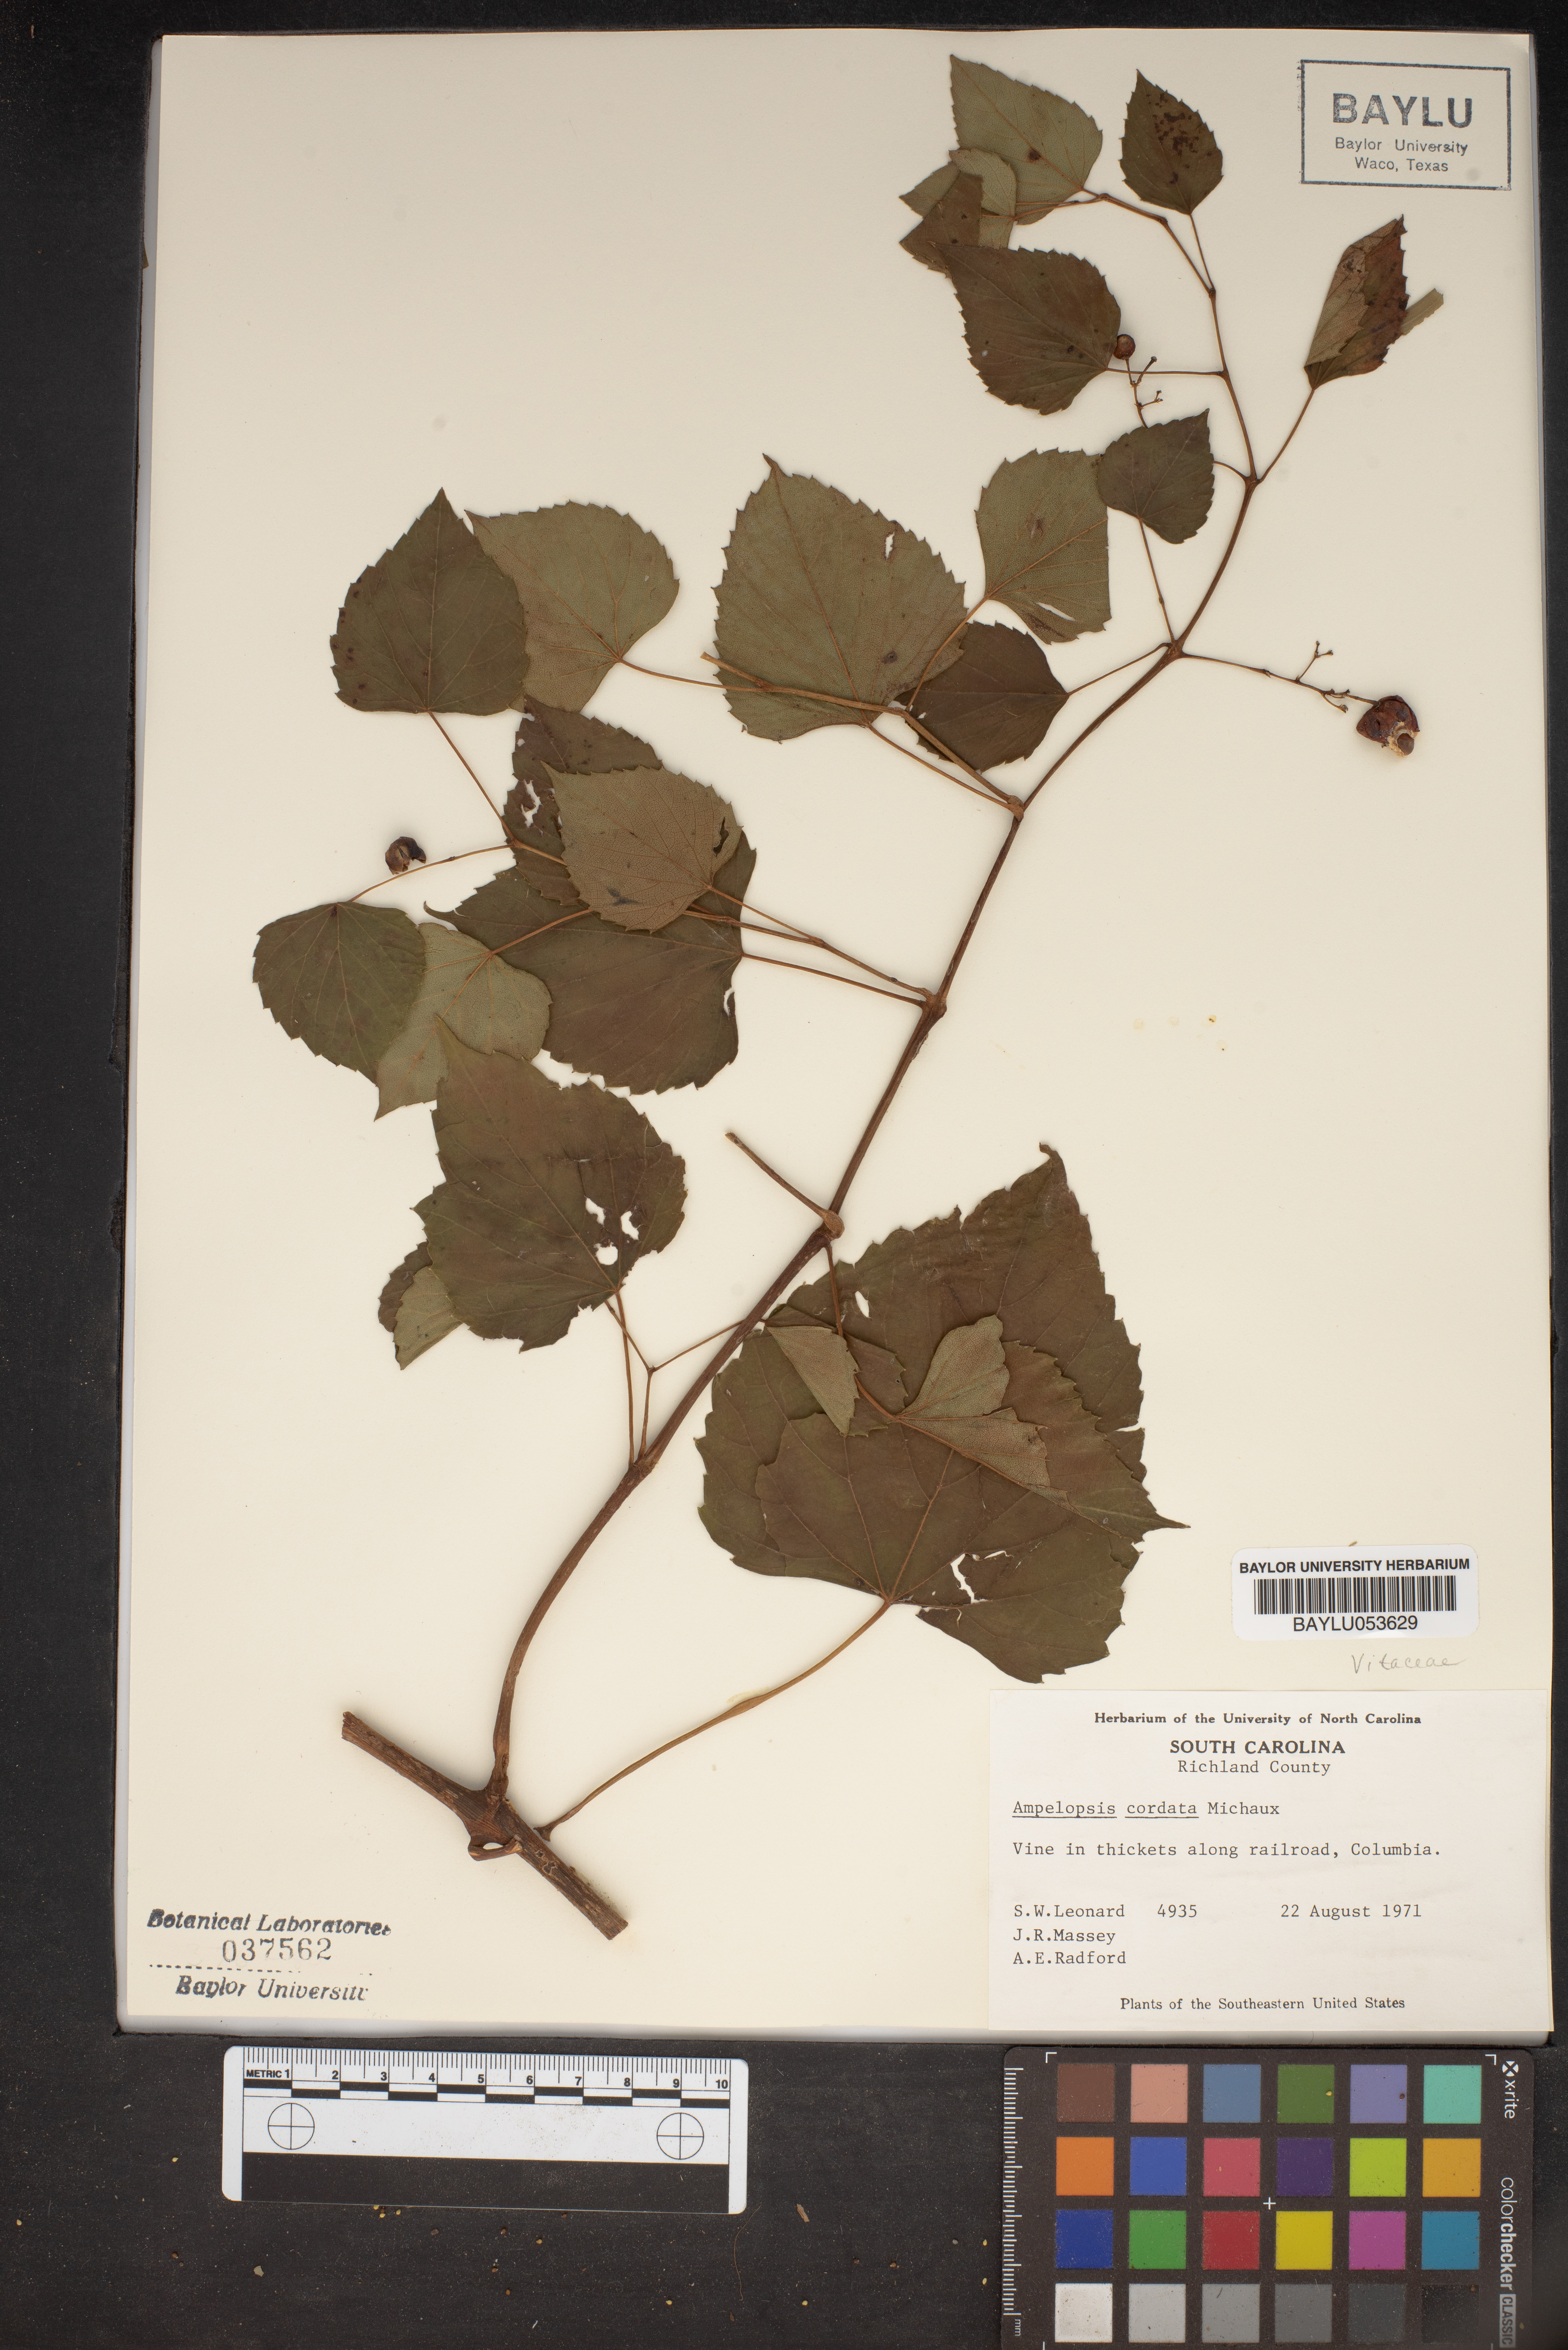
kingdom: Plantae
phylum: Tracheophyta
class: Magnoliopsida
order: Vitales
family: Vitaceae
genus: Ampelopsis
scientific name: Ampelopsis cordata
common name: Heart-leaf ampelopsis
